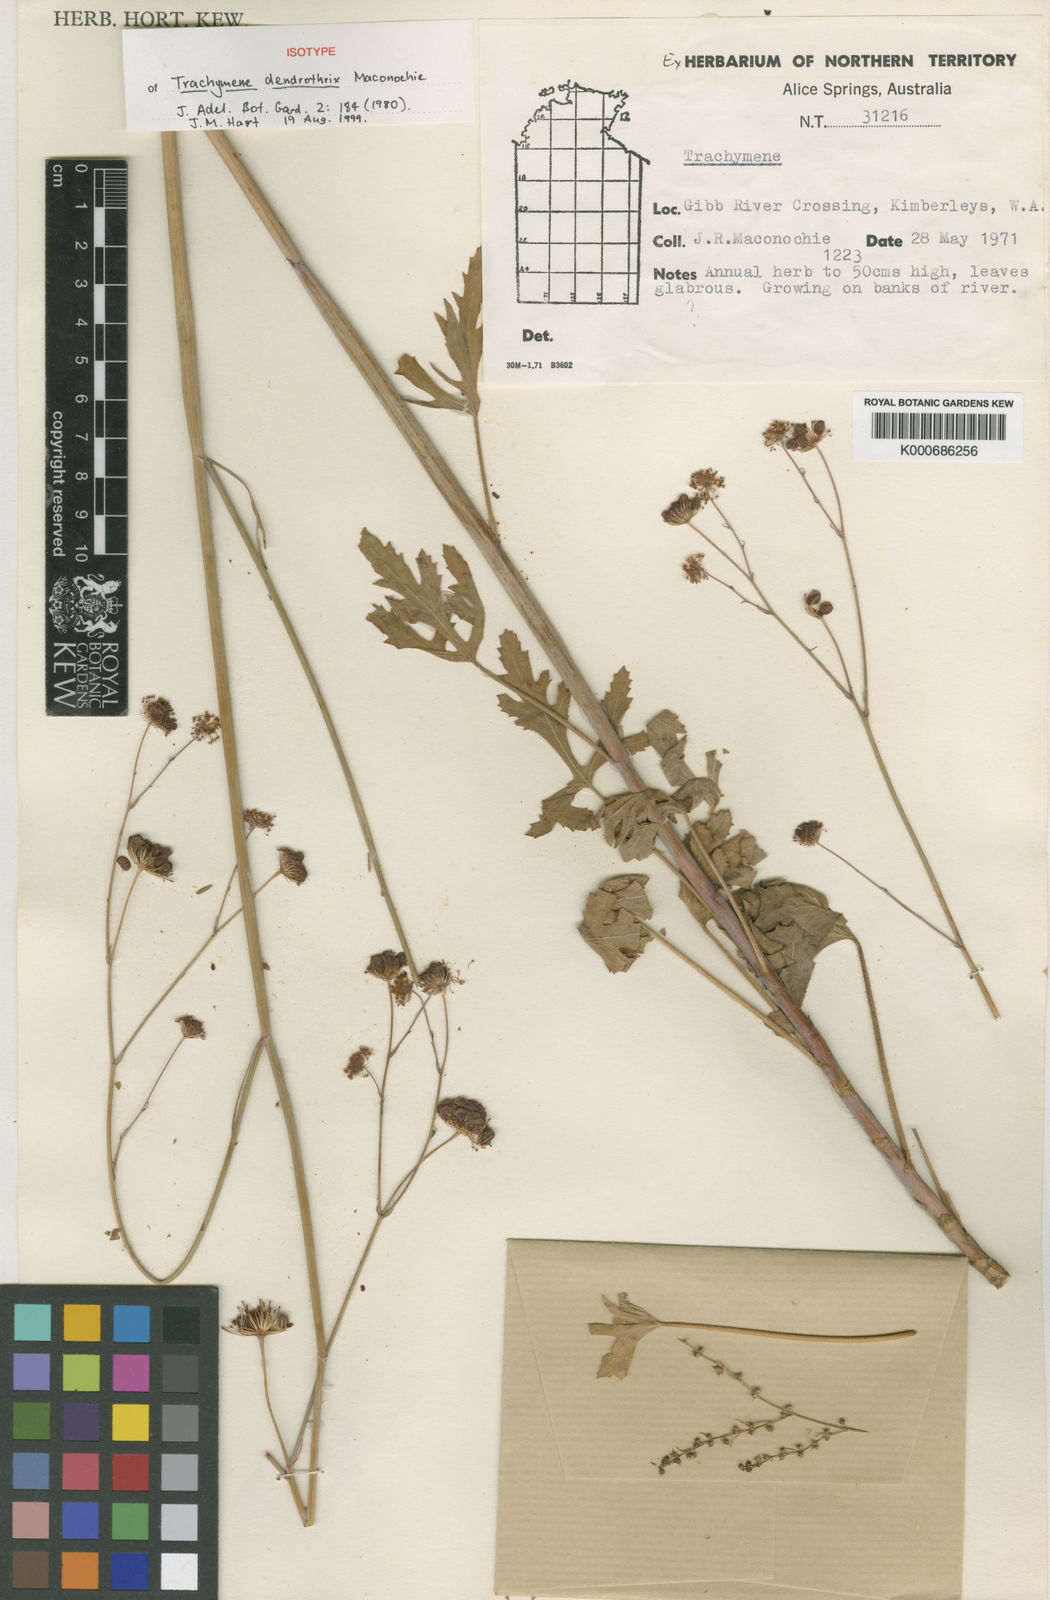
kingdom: Plantae
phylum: Tracheophyta
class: Magnoliopsida
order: Apiales
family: Araliaceae
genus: Trachymene
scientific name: Trachymene dendrothrix
